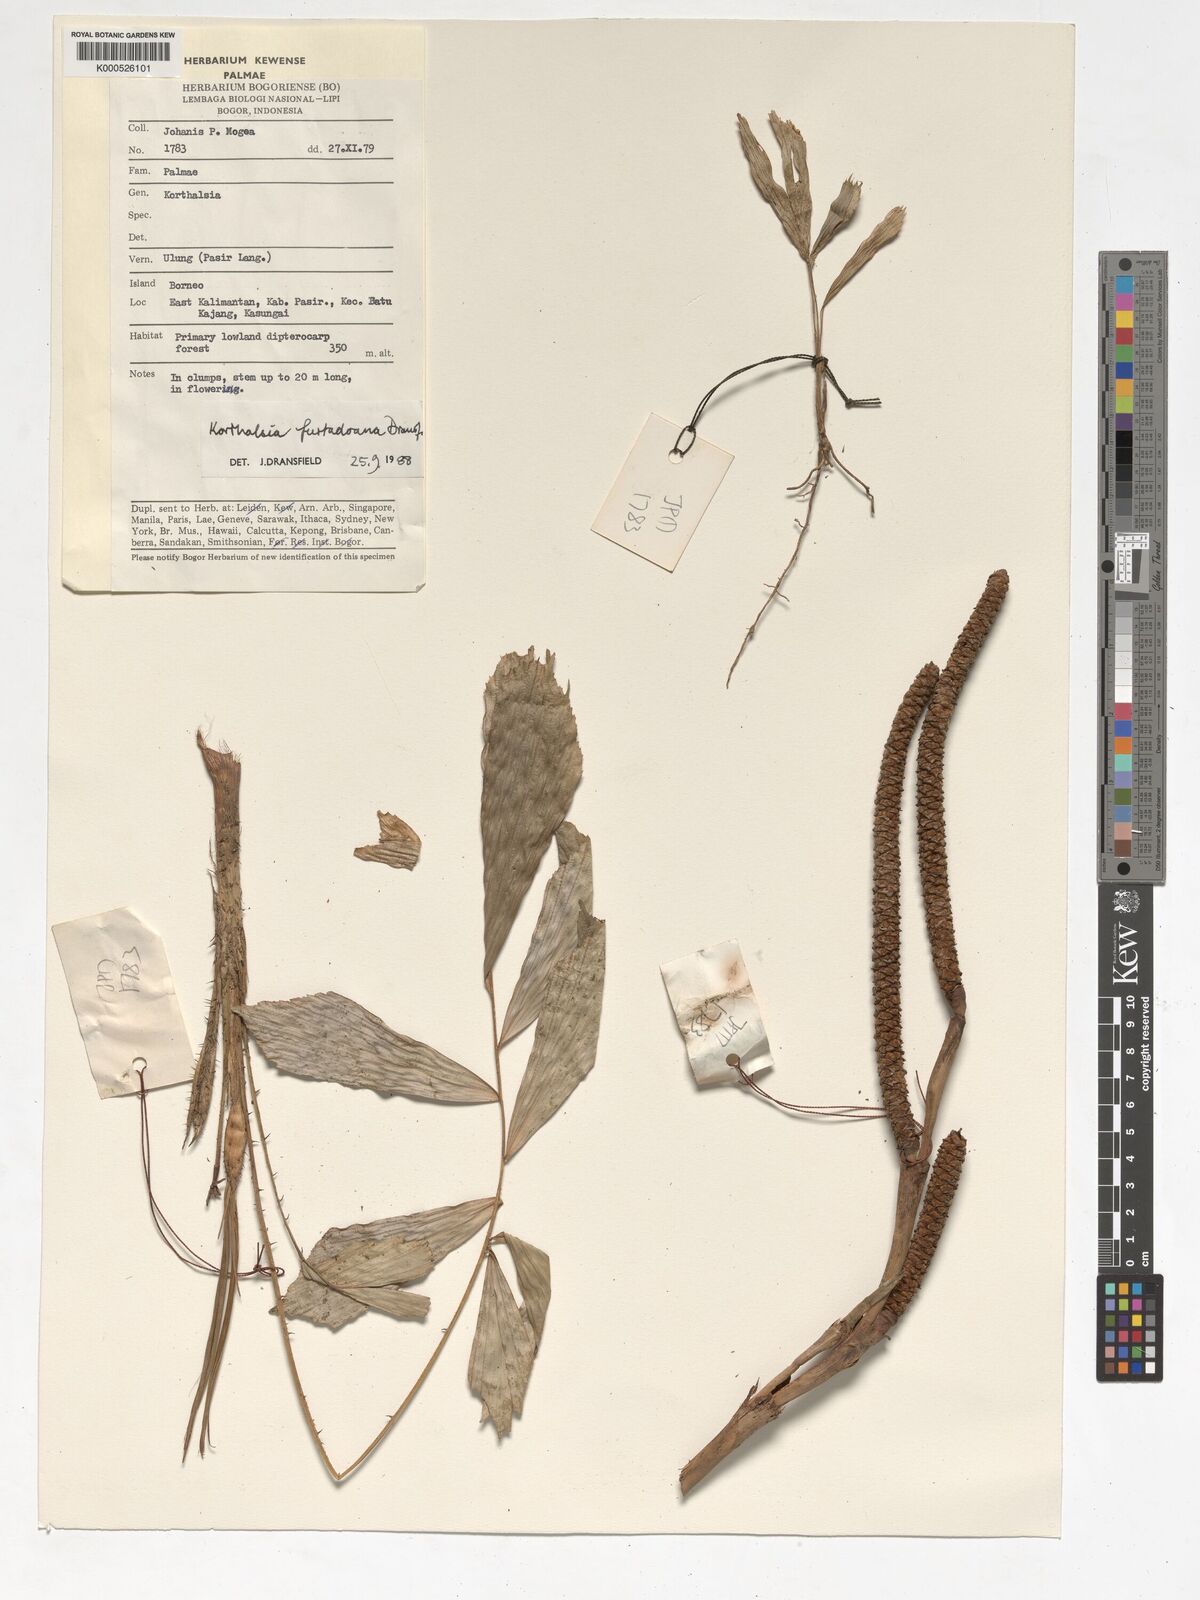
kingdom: Plantae
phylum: Tracheophyta
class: Liliopsida
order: Arecales
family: Arecaceae
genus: Korthalsia
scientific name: Korthalsia furtadoana
